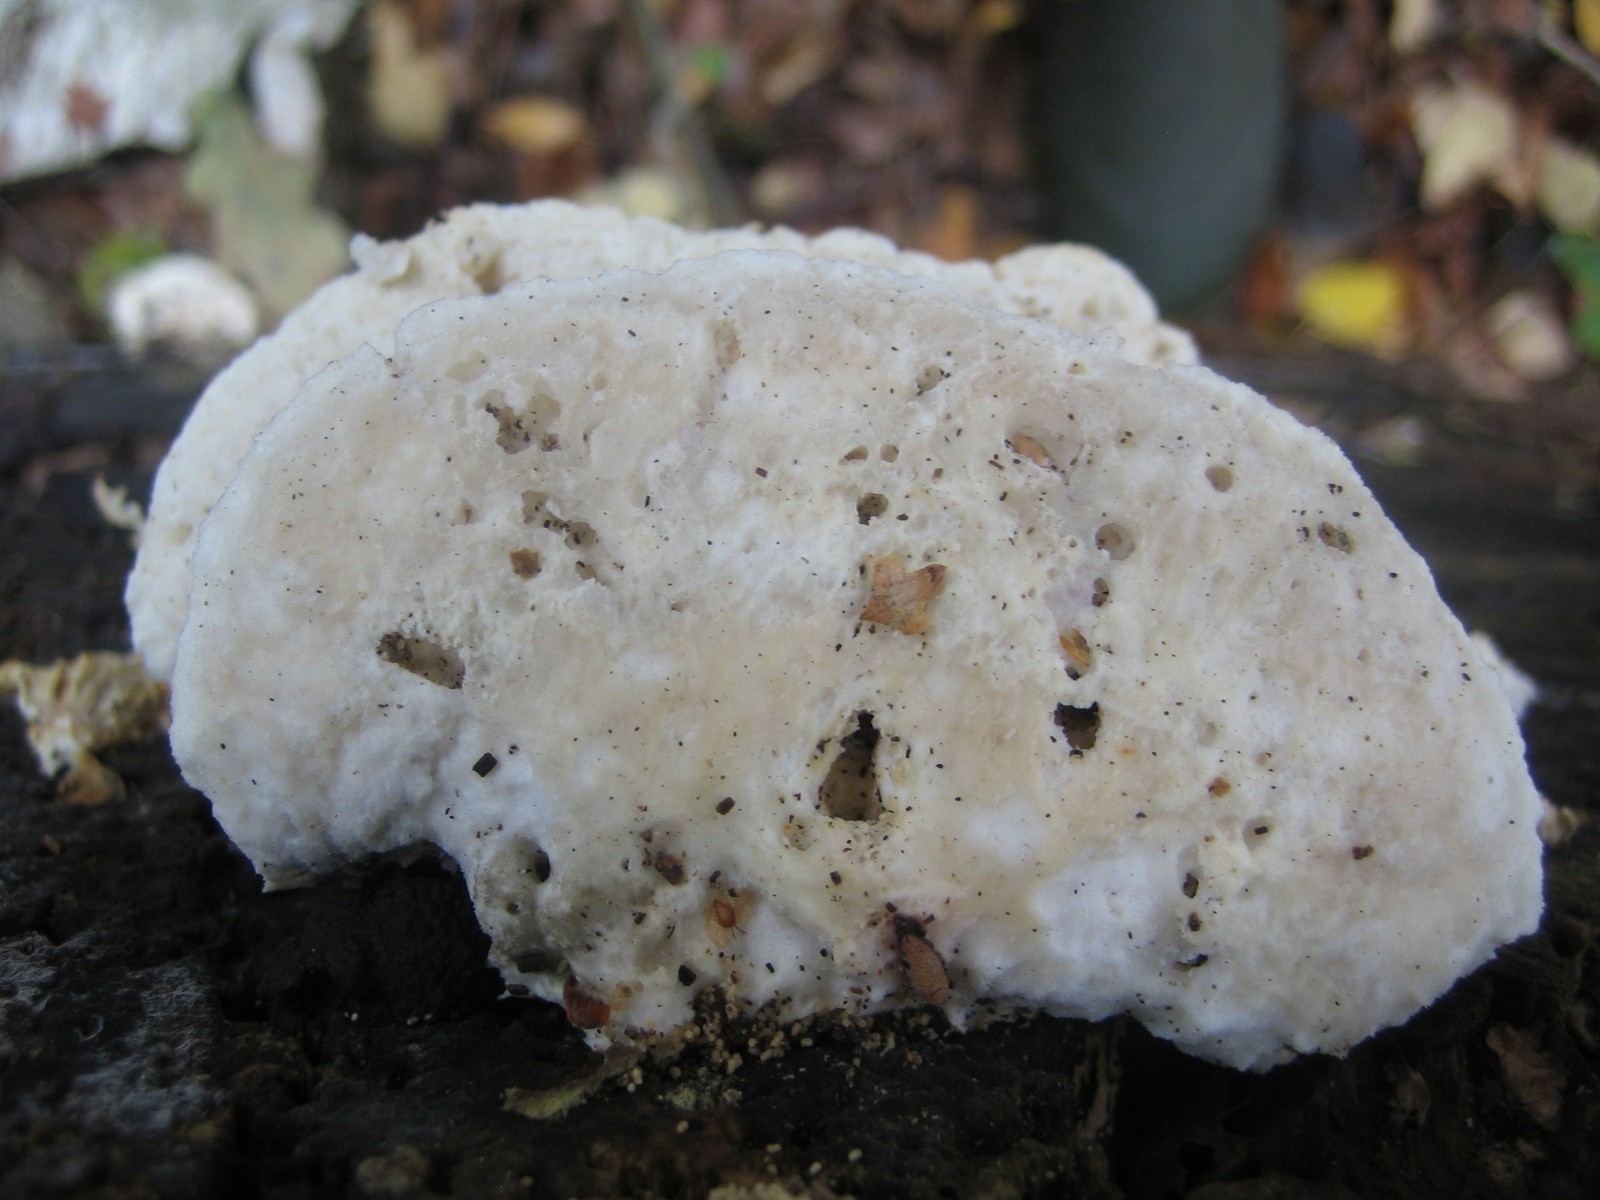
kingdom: Fungi
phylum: Basidiomycota
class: Agaricomycetes
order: Polyporales
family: Incrustoporiaceae
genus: Tyromyces
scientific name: Tyromyces lacteus
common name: mælkehvid kødporesvamp
